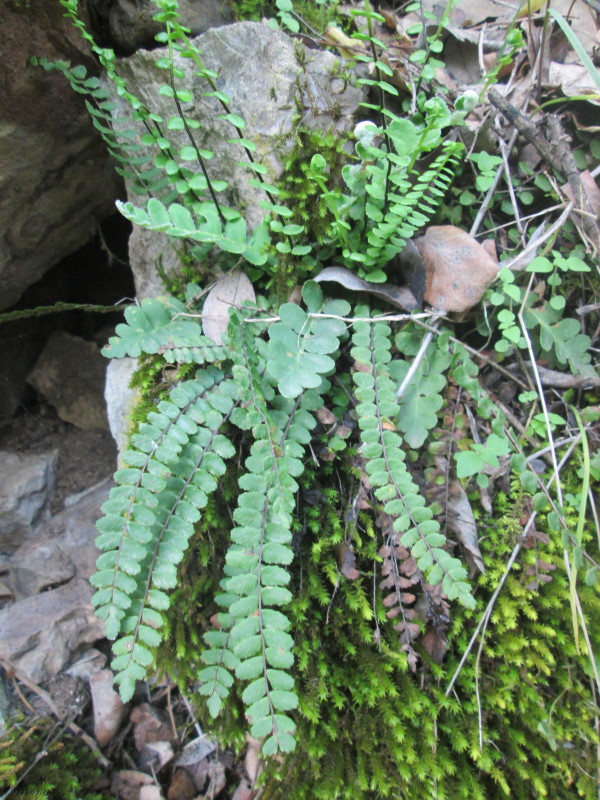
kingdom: Plantae
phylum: Tracheophyta
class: Polypodiopsida
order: Polypodiales
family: Aspleniaceae
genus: Asplenium
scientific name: Asplenium trichomanes
